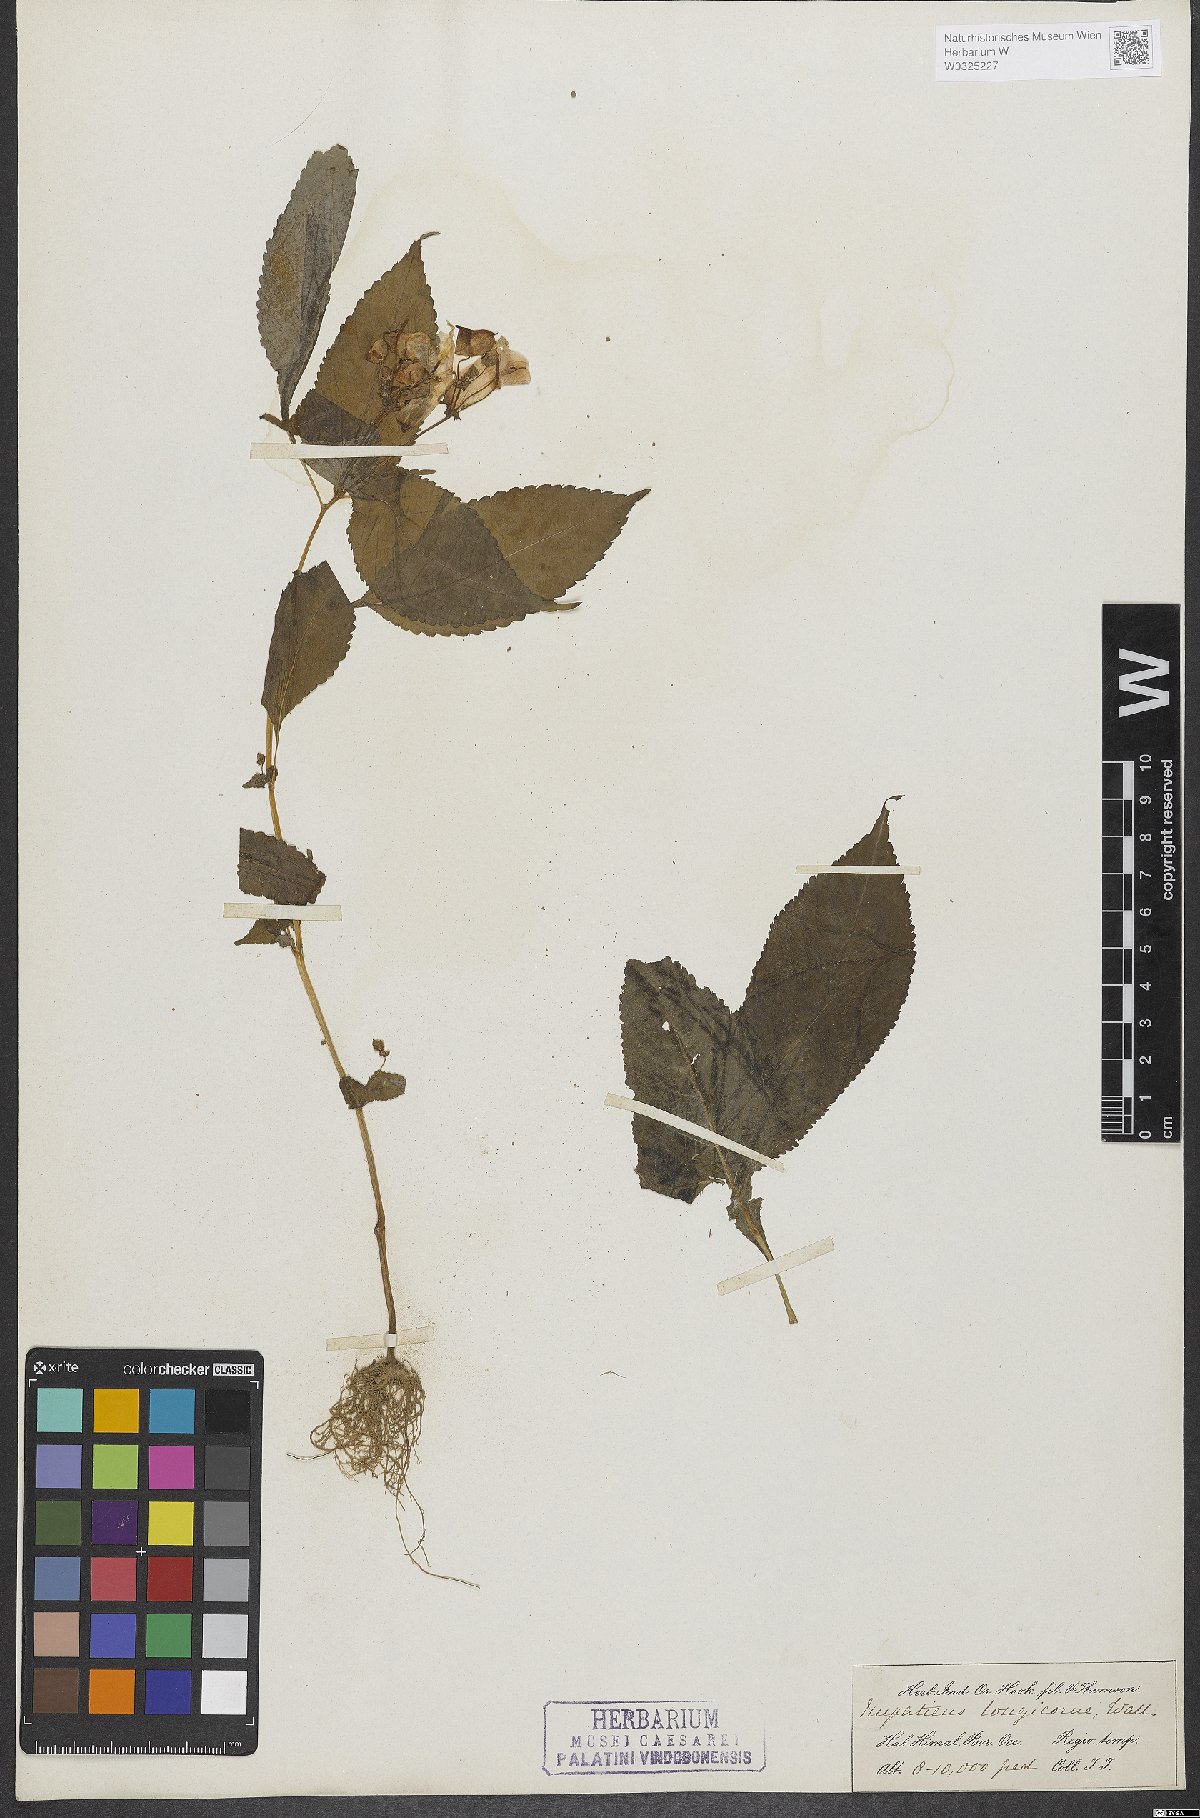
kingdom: Plantae
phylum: Tracheophyta
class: Magnoliopsida
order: Ericales
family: Balsaminaceae
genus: Impatiens
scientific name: Impatiens bicolor
